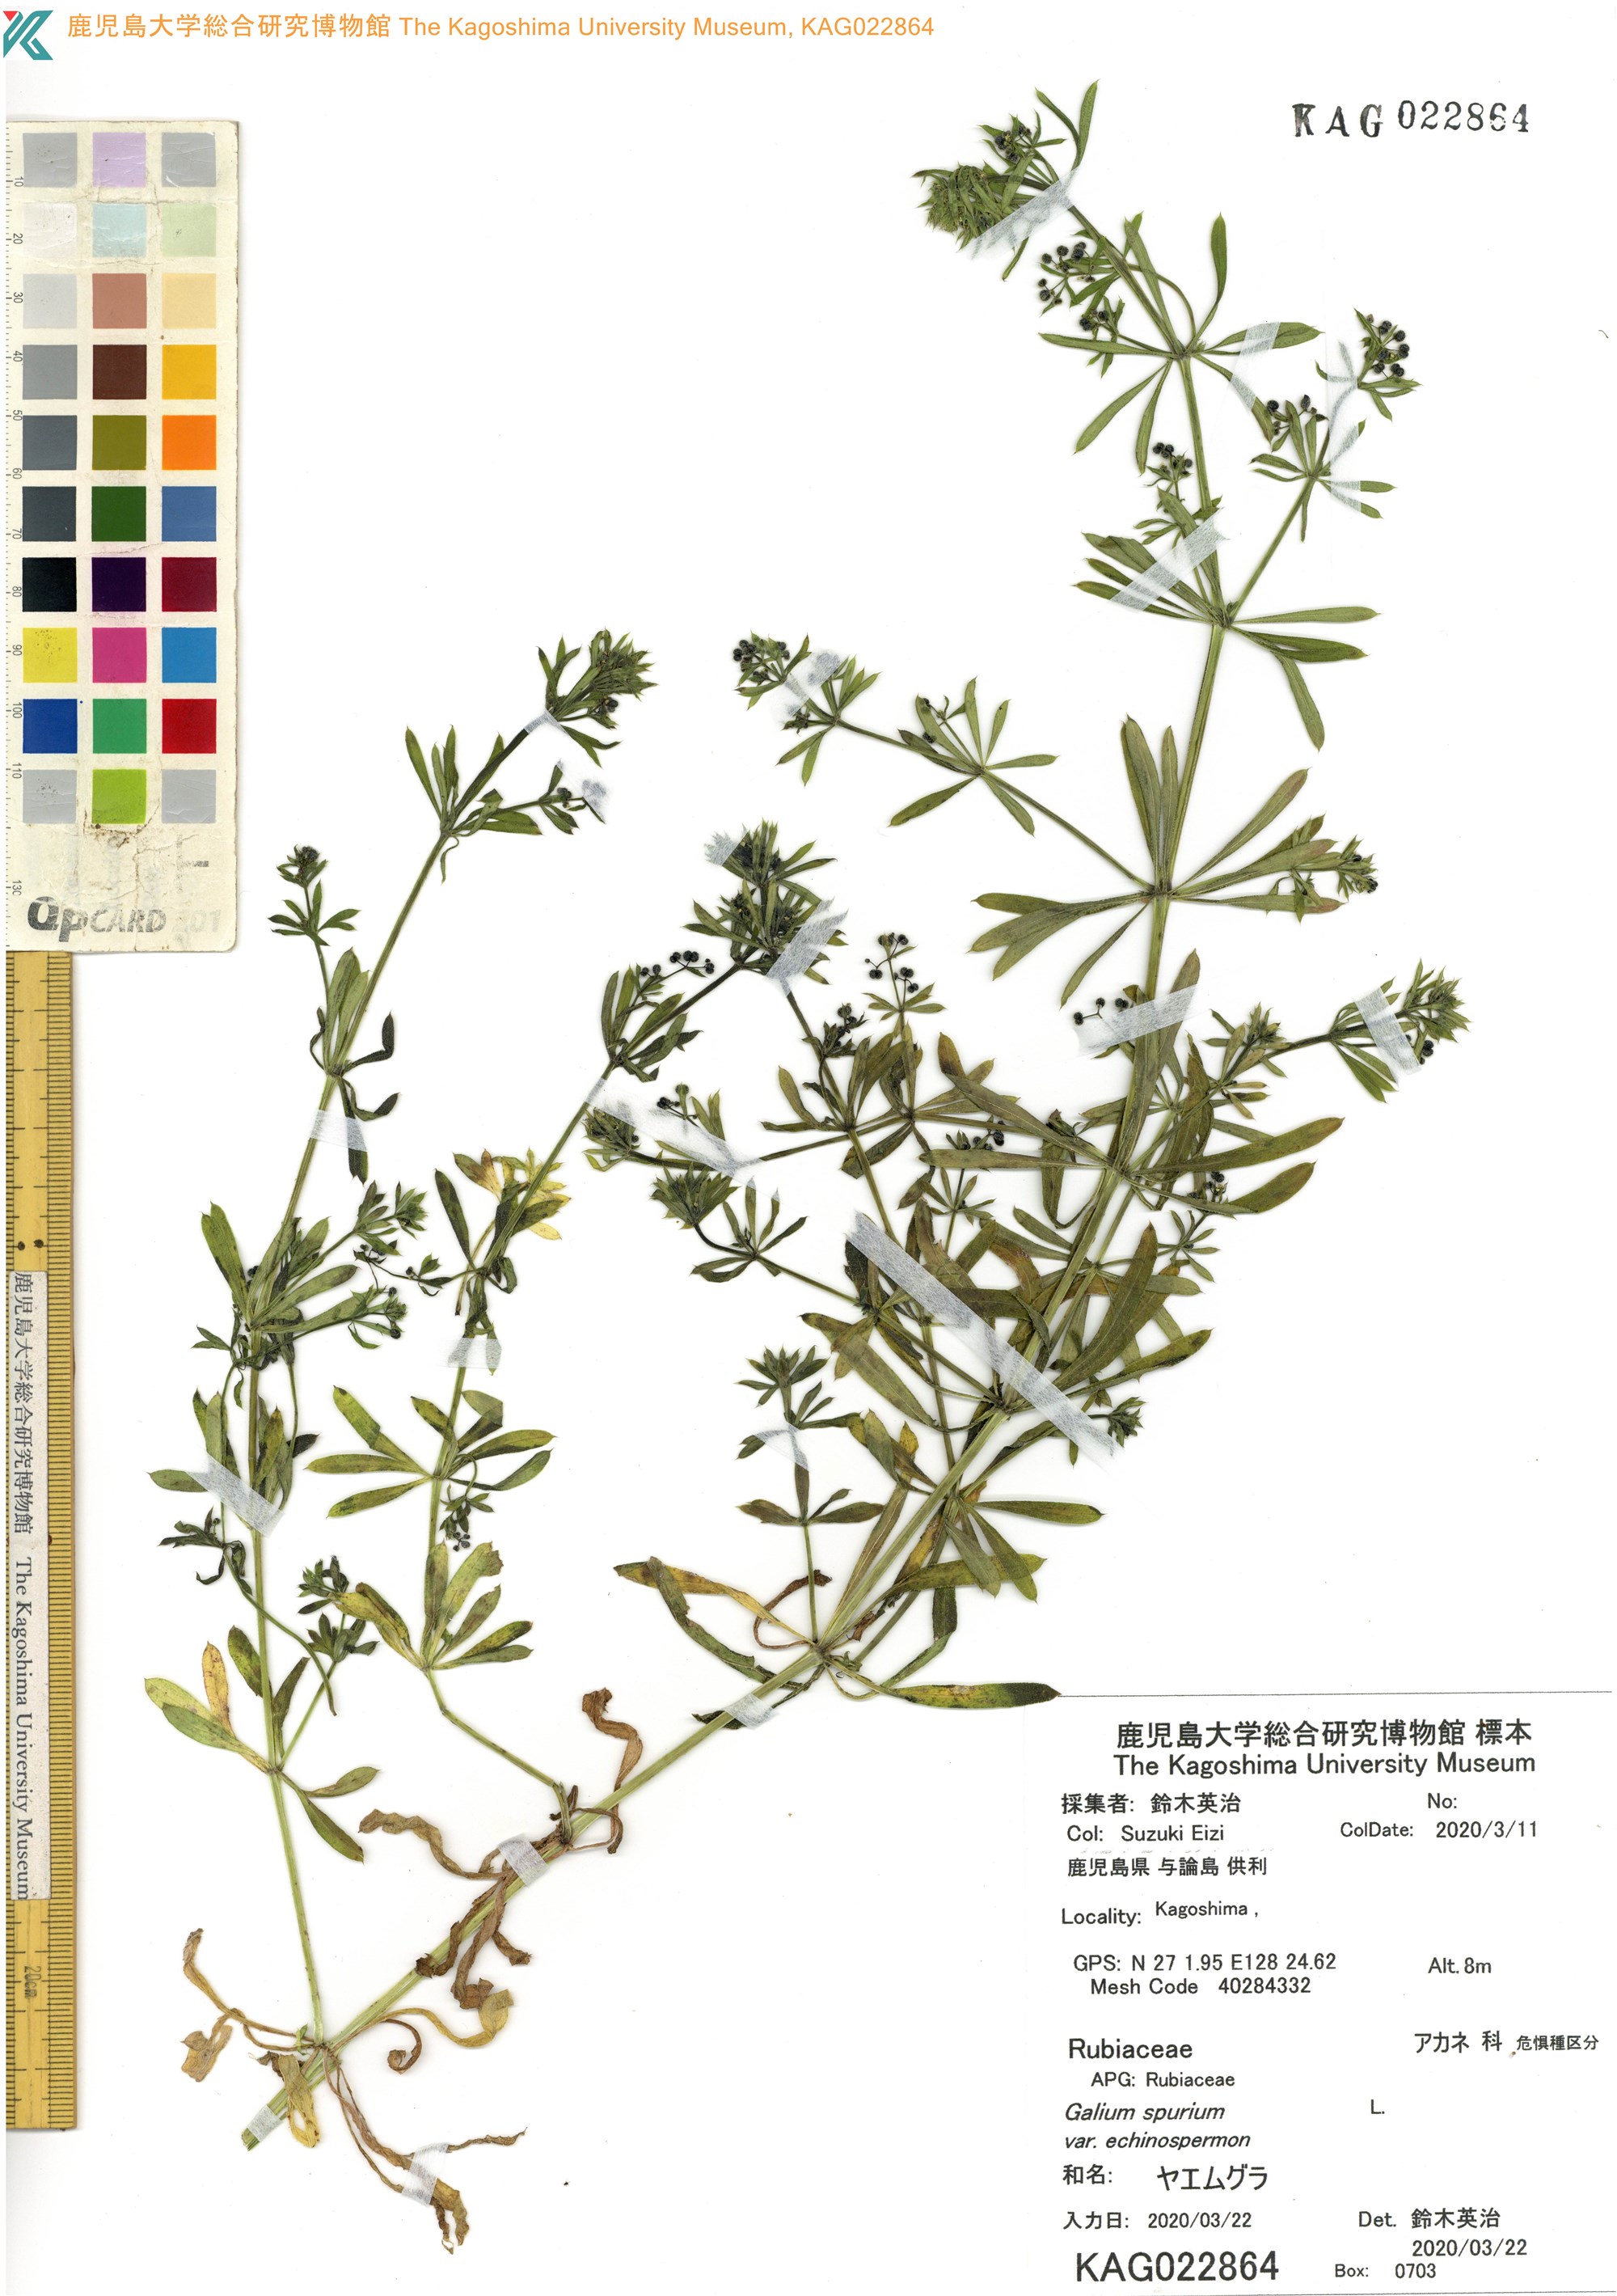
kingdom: Plantae
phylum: Tracheophyta
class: Magnoliopsida
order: Gentianales
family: Rubiaceae
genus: Galium
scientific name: Galium
